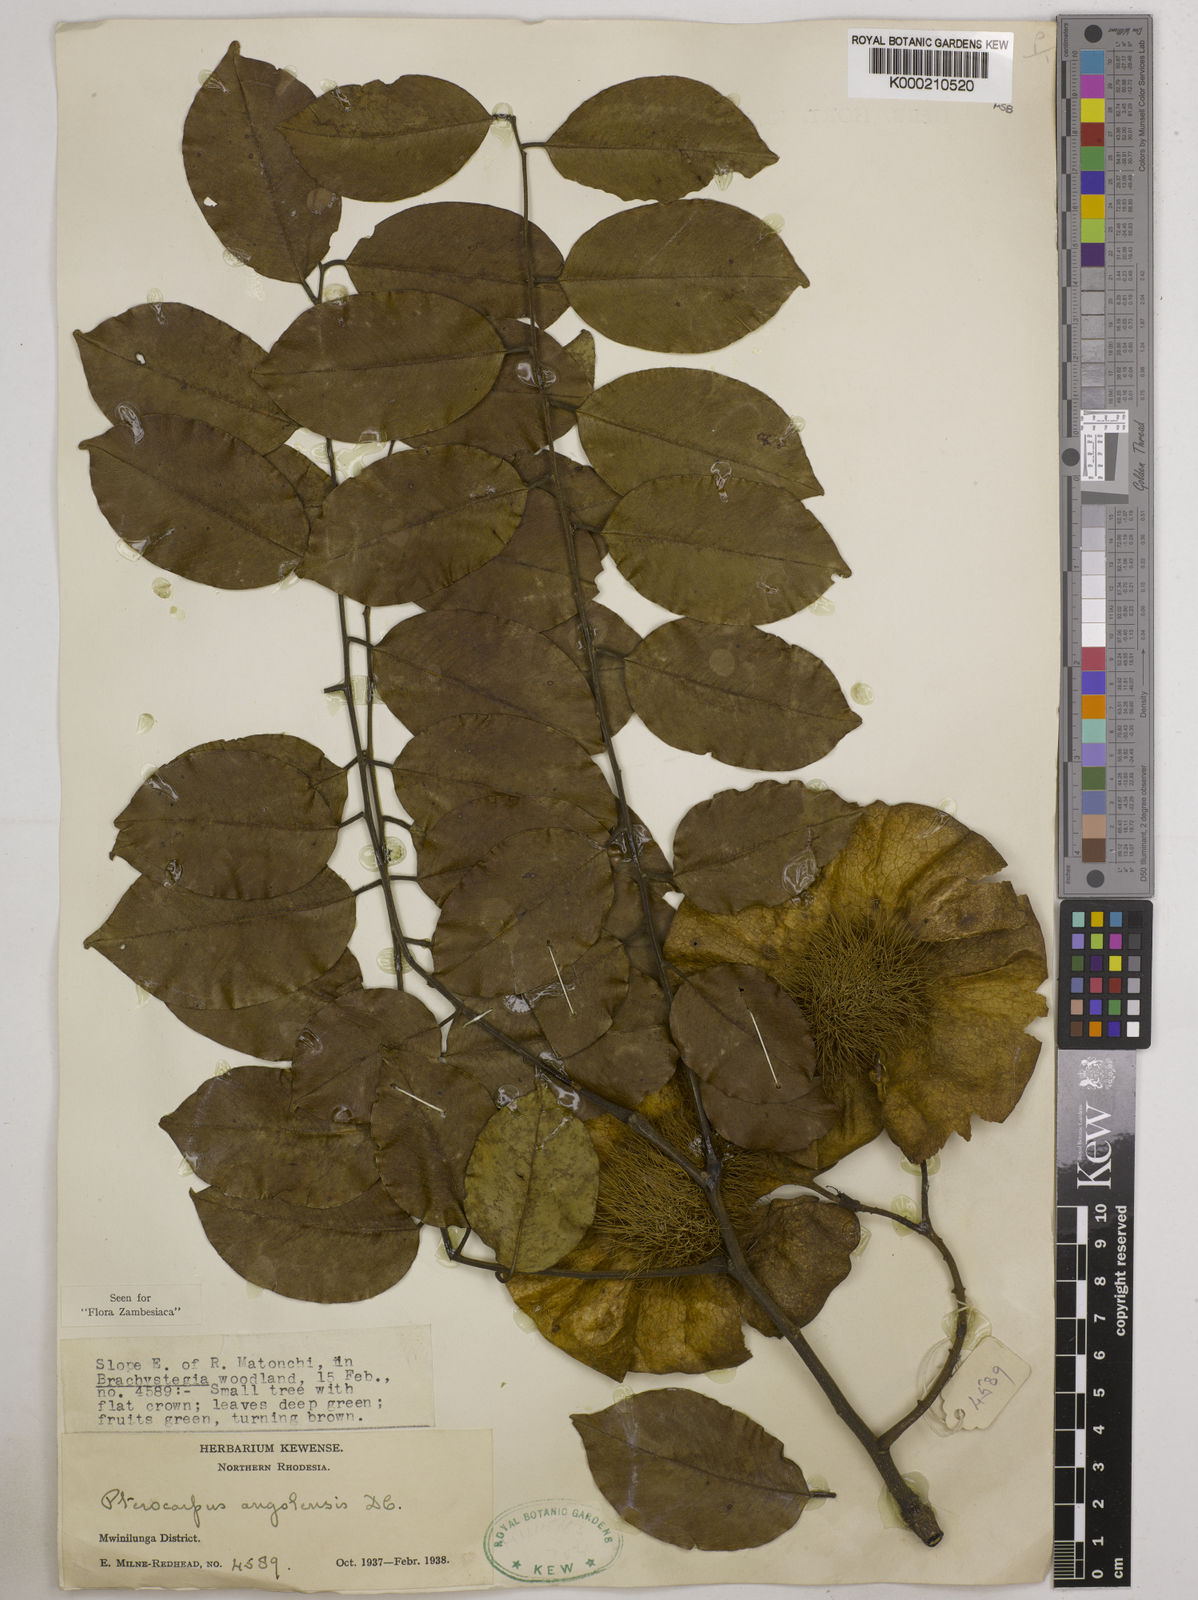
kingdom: Plantae
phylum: Tracheophyta
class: Magnoliopsida
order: Fabales
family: Fabaceae
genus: Pterocarpus
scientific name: Pterocarpus angolensis
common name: Bloodwood tree
